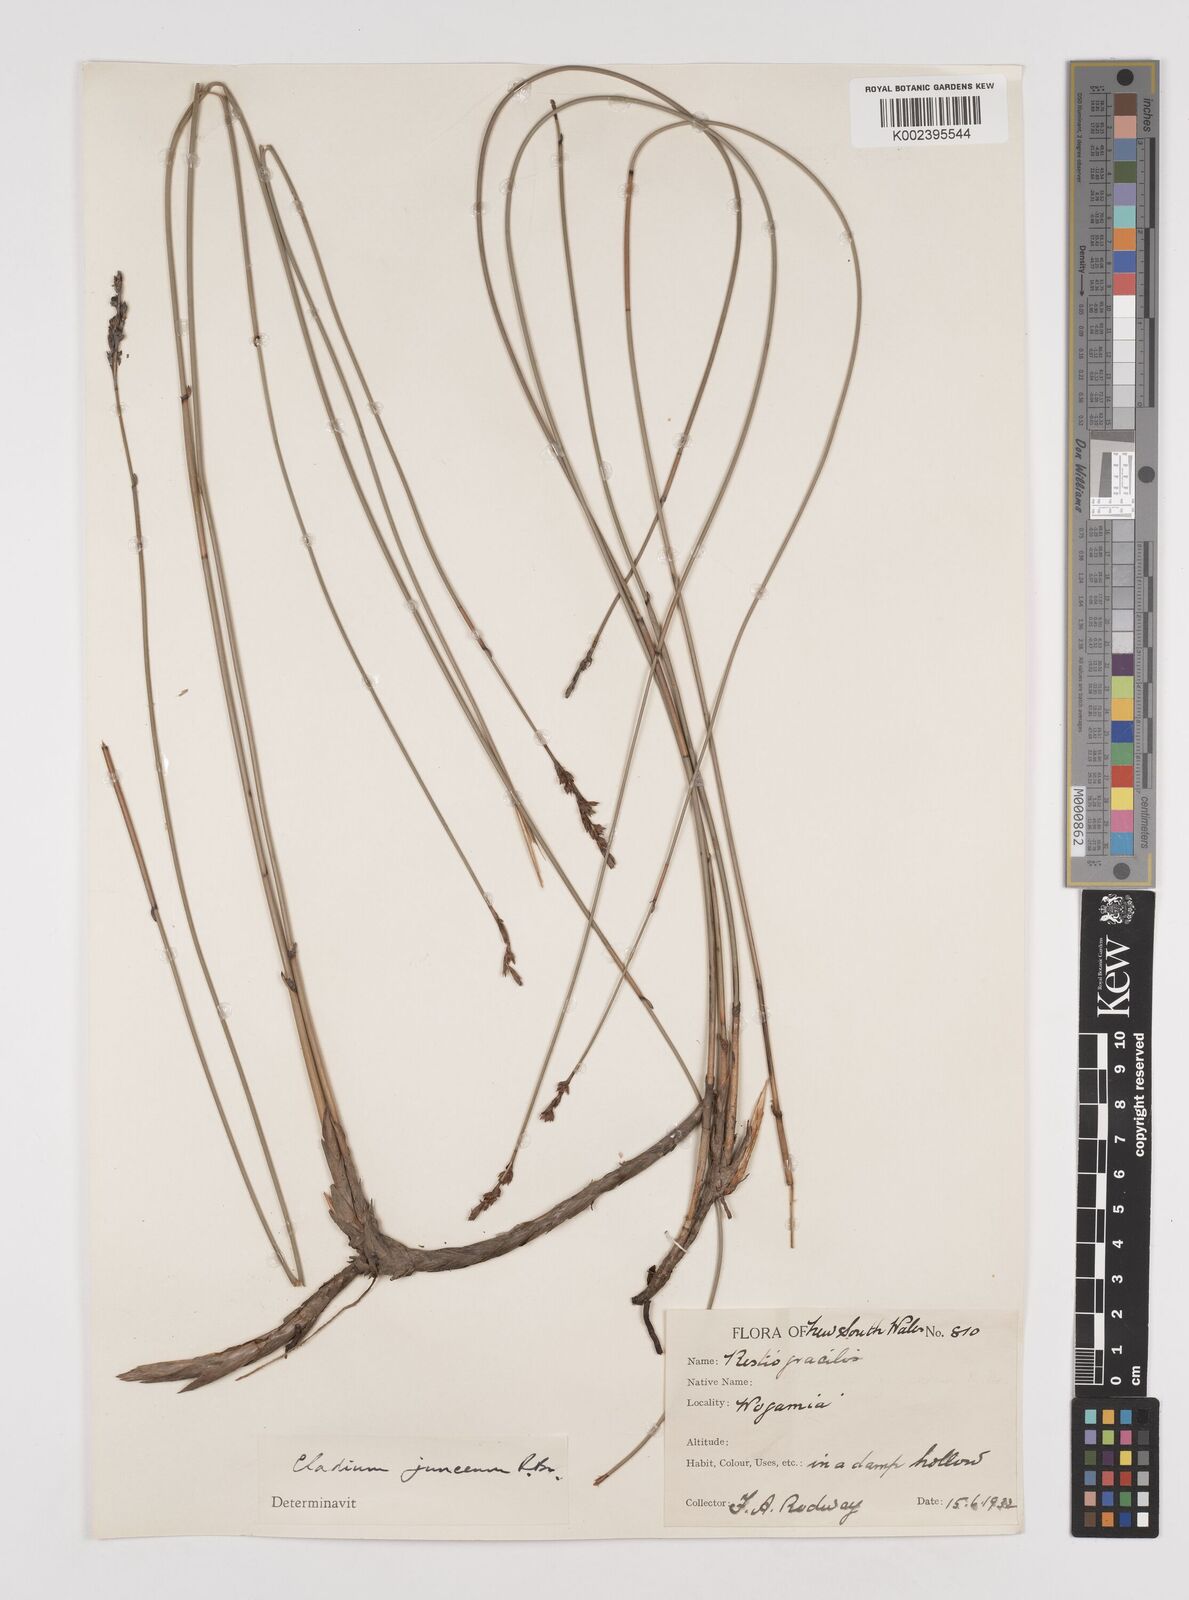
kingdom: Plantae
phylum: Tracheophyta
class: Liliopsida
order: Poales
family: Cyperaceae
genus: Machaerina
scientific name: Machaerina juncea
